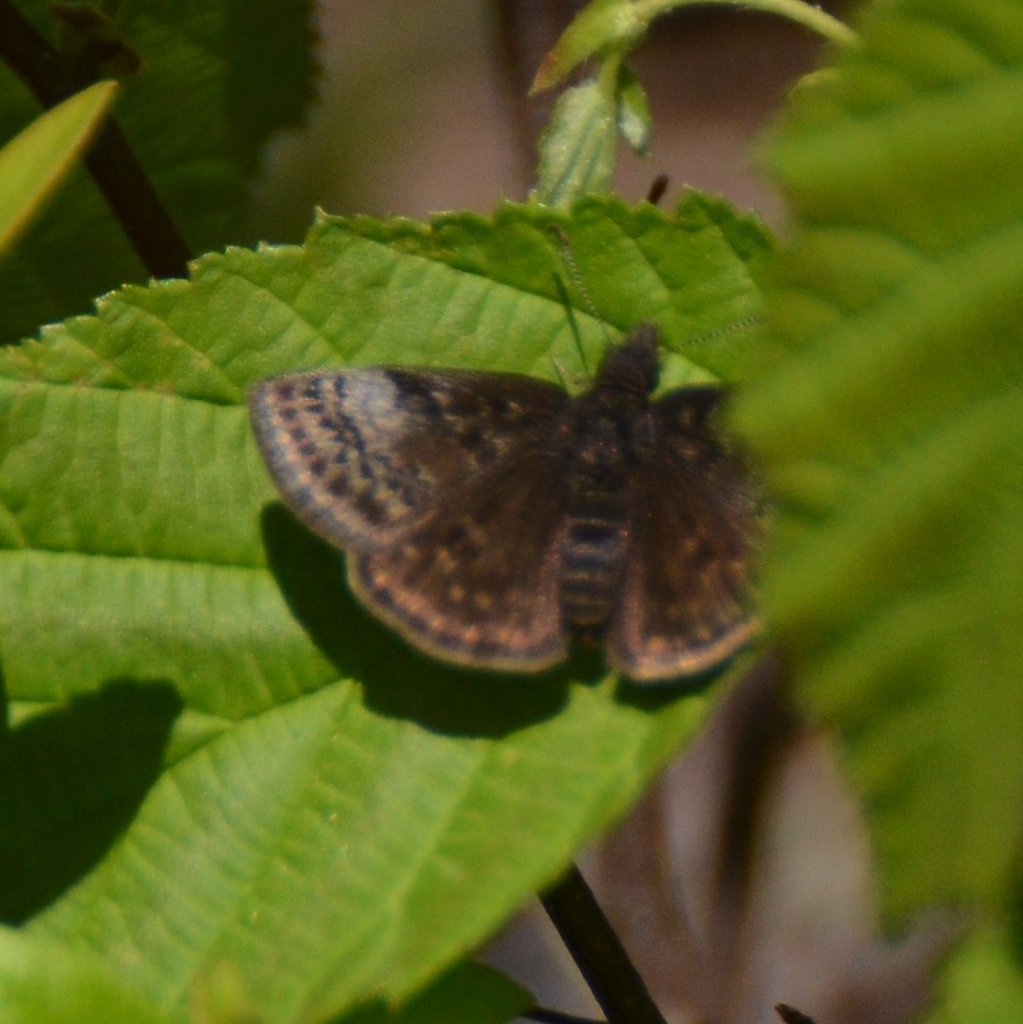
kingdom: Animalia
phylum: Arthropoda
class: Insecta
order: Lepidoptera
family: Hesperiidae
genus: Erynnis
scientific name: Erynnis icelus
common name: Dreamy Duskywing
